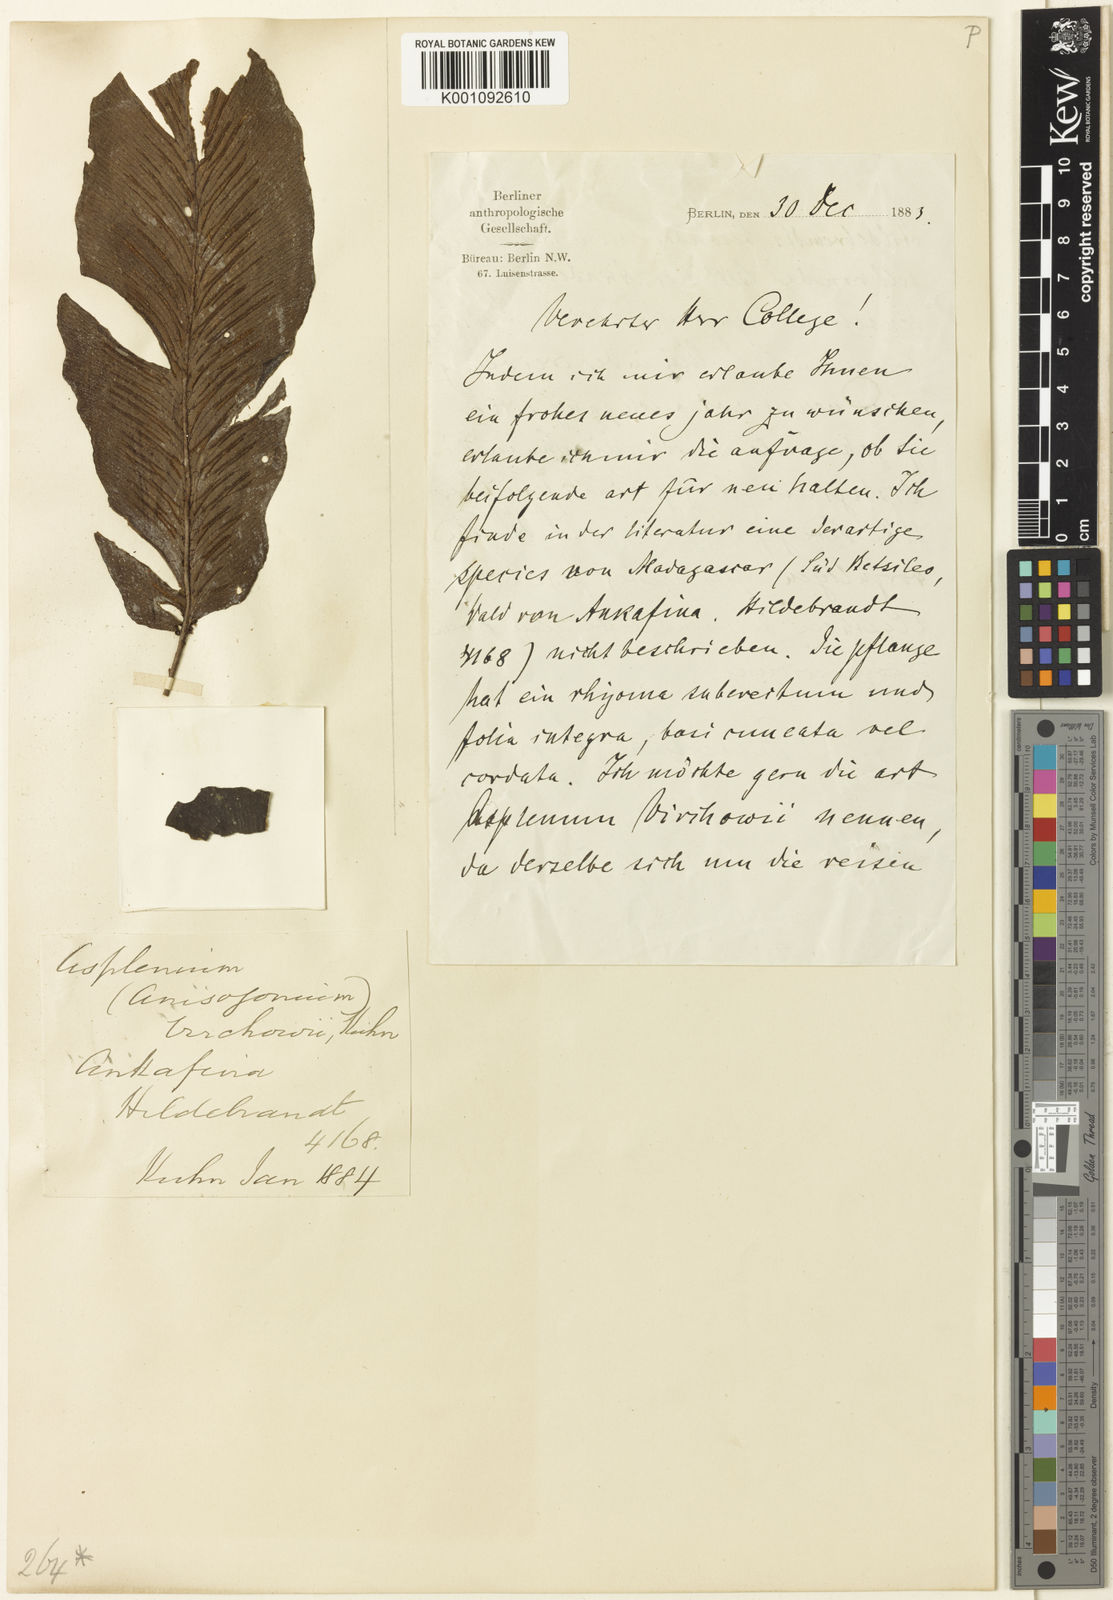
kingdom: Plantae
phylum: Tracheophyta
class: Polypodiopsida
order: Polypodiales
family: Aspleniaceae
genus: Asplenium
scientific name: Asplenium virchowii
